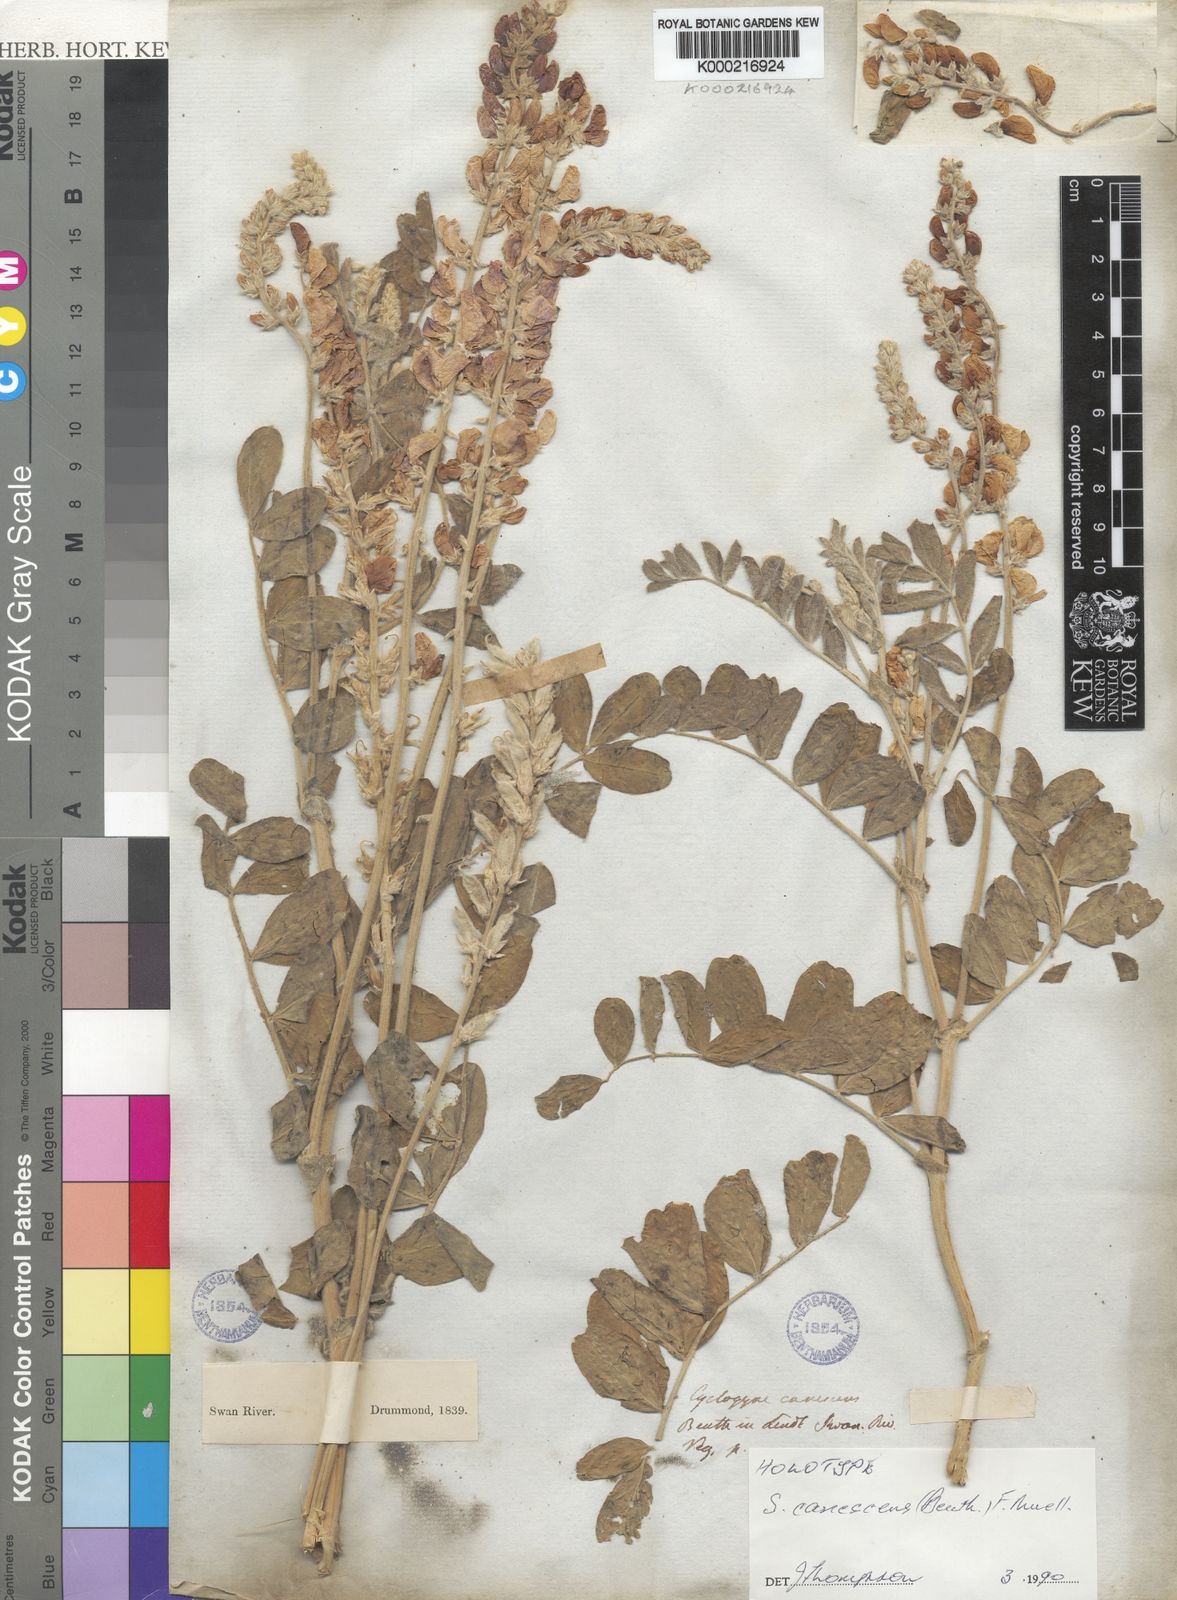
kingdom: Plantae
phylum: Tracheophyta
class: Magnoliopsida
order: Fabales
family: Fabaceae
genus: Swainsona
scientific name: Swainsona canescens
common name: Grey swainsona
